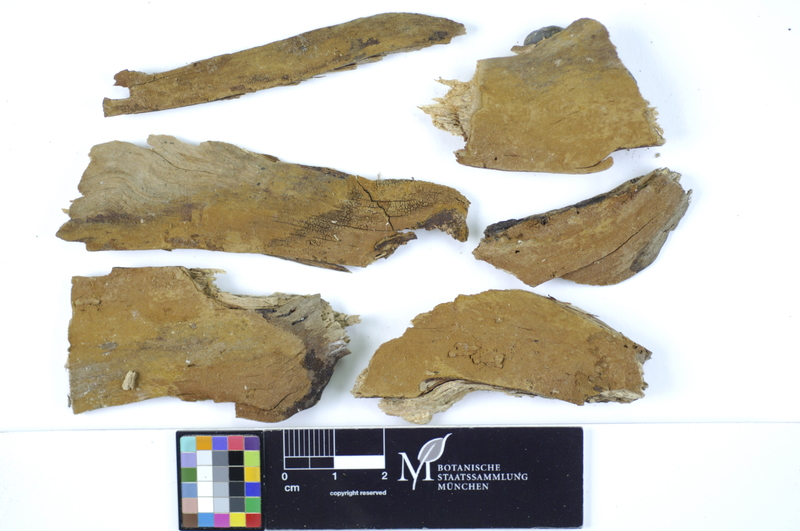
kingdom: Fungi
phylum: Basidiomycota
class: Agaricomycetes
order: Hymenochaetales
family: Hymenochaetaceae
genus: Hymenochaete
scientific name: Hymenochaete fuliginosa
